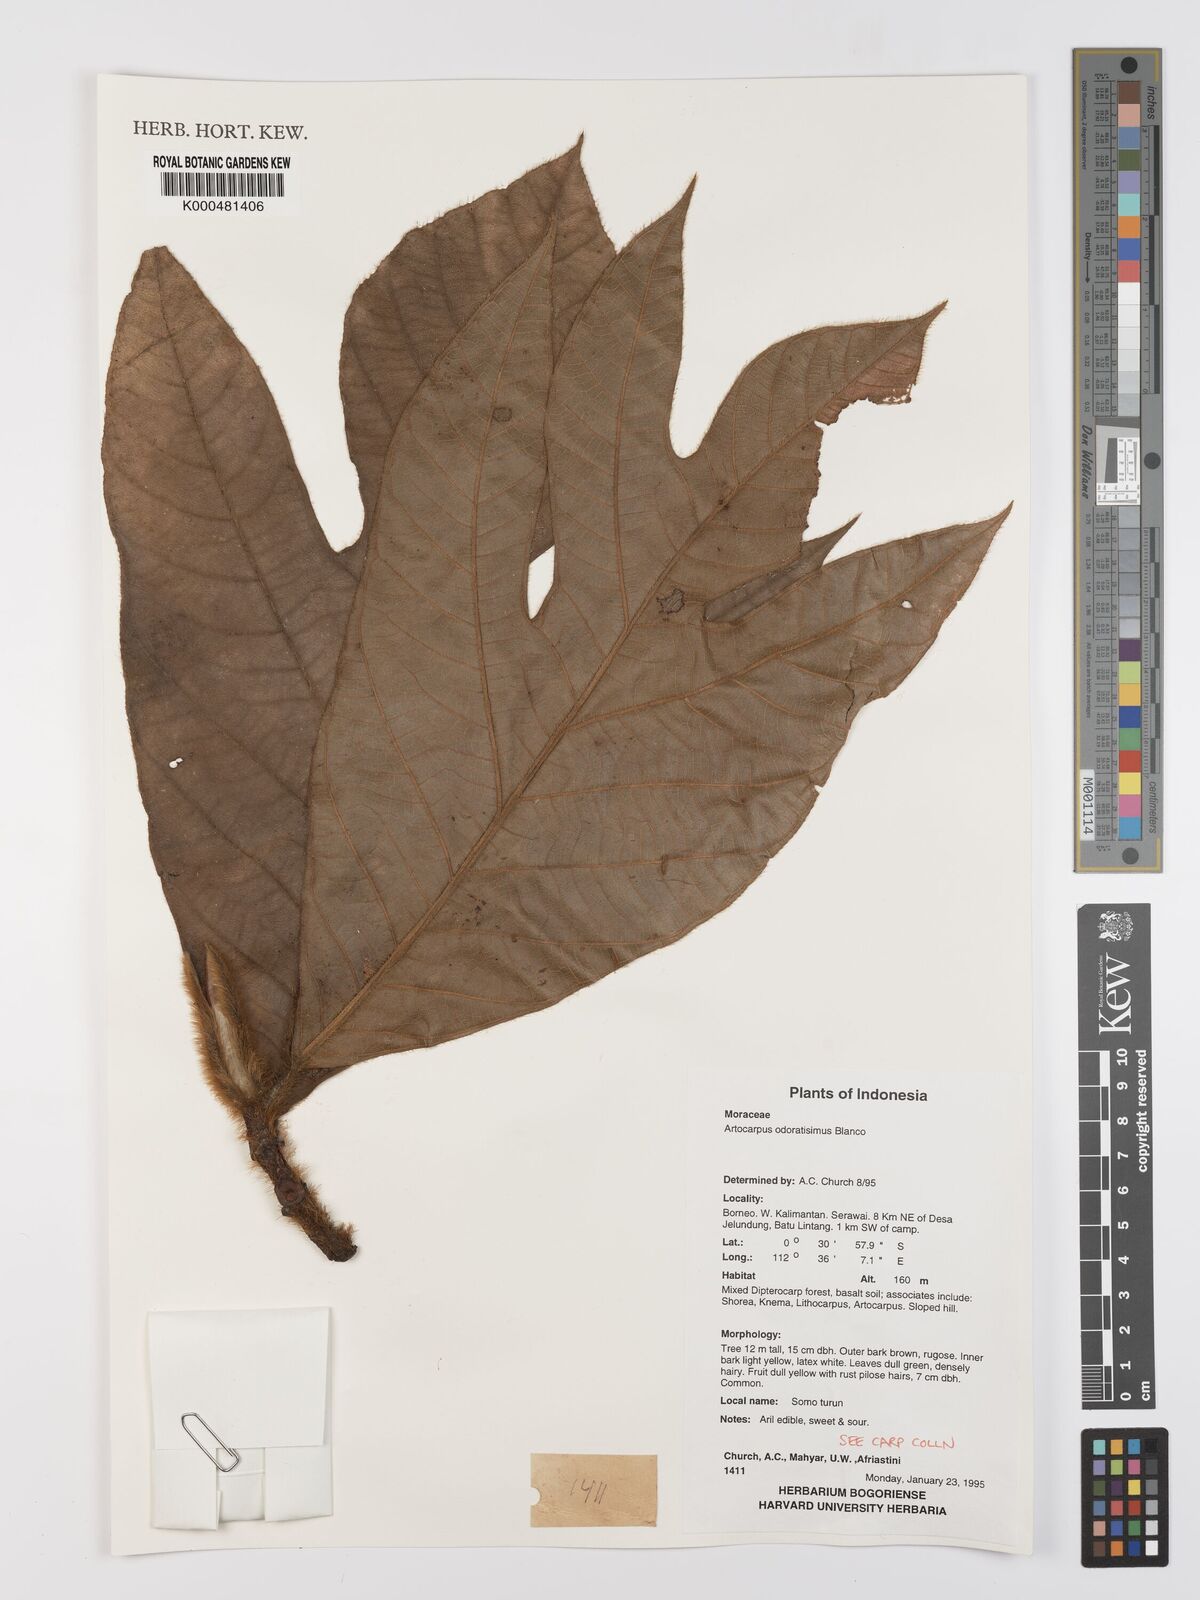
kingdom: Plantae
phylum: Tracheophyta
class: Magnoliopsida
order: Rosales
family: Moraceae
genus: Artocarpus
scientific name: Artocarpus odoratissimus
